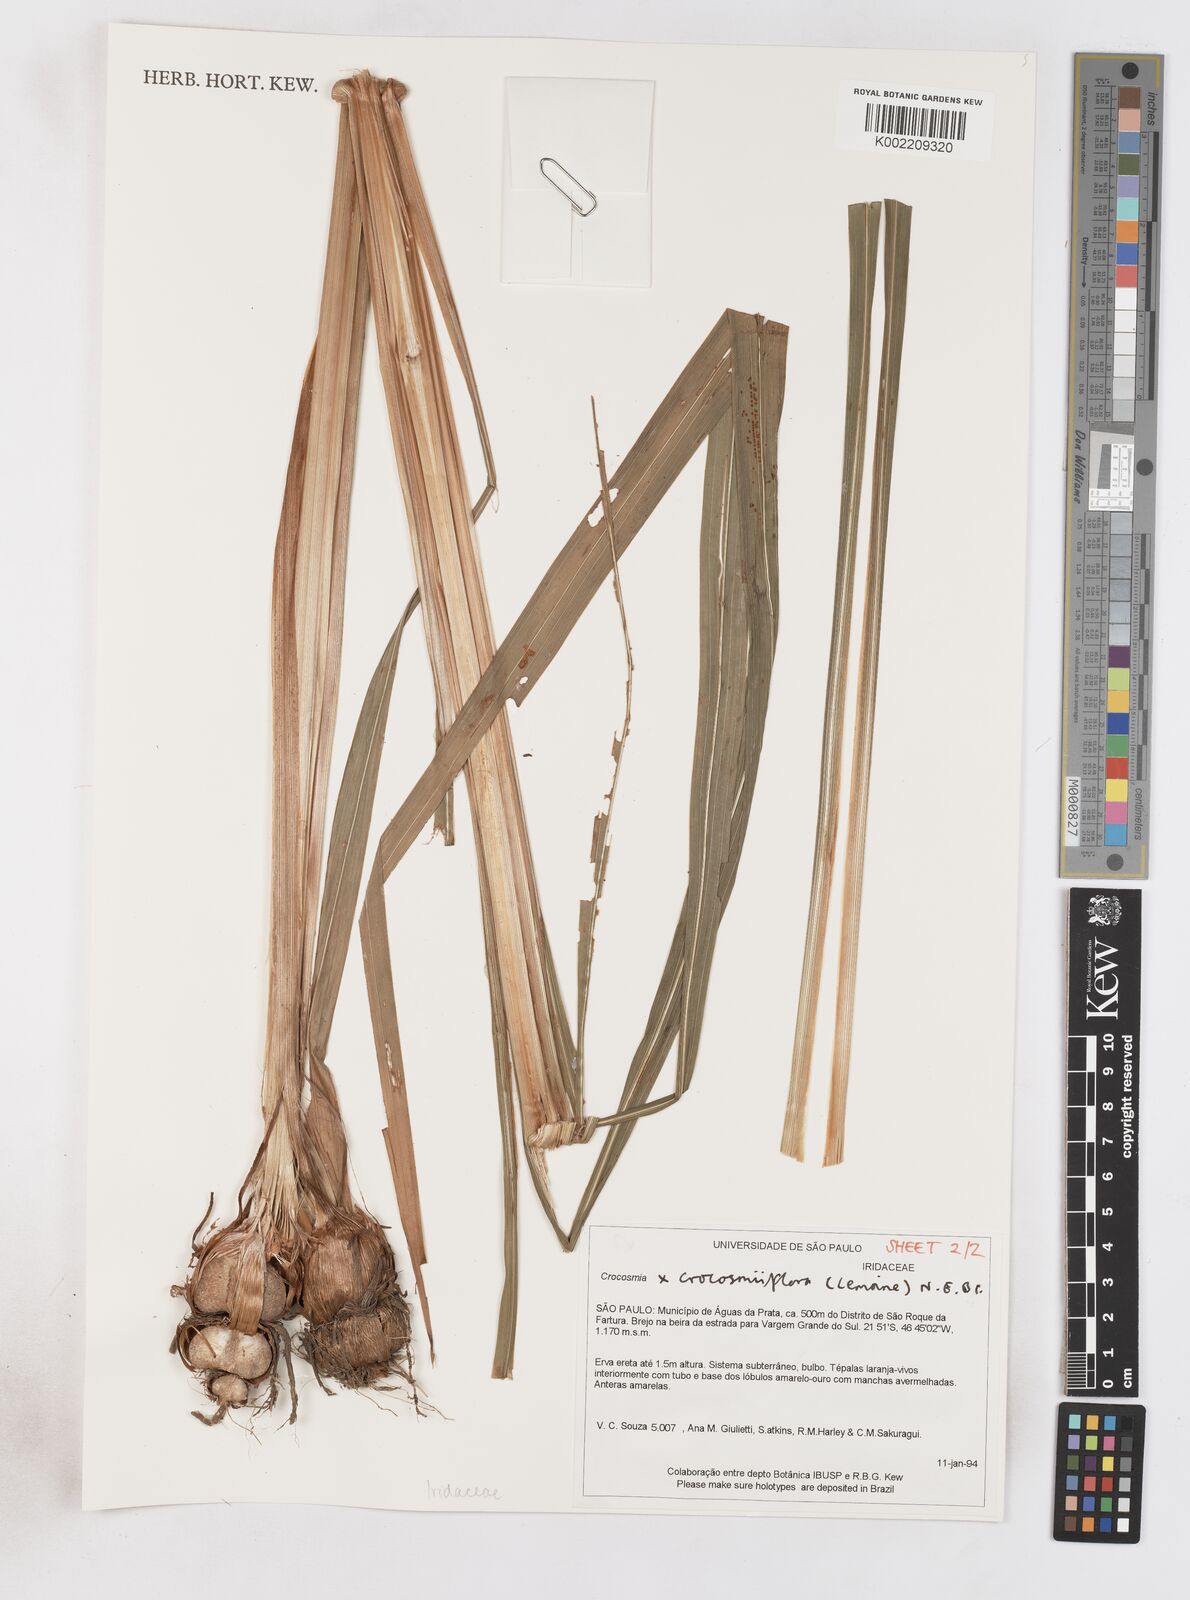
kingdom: Plantae
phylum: Tracheophyta
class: Liliopsida
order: Asparagales
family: Iridaceae
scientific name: Iridaceae
